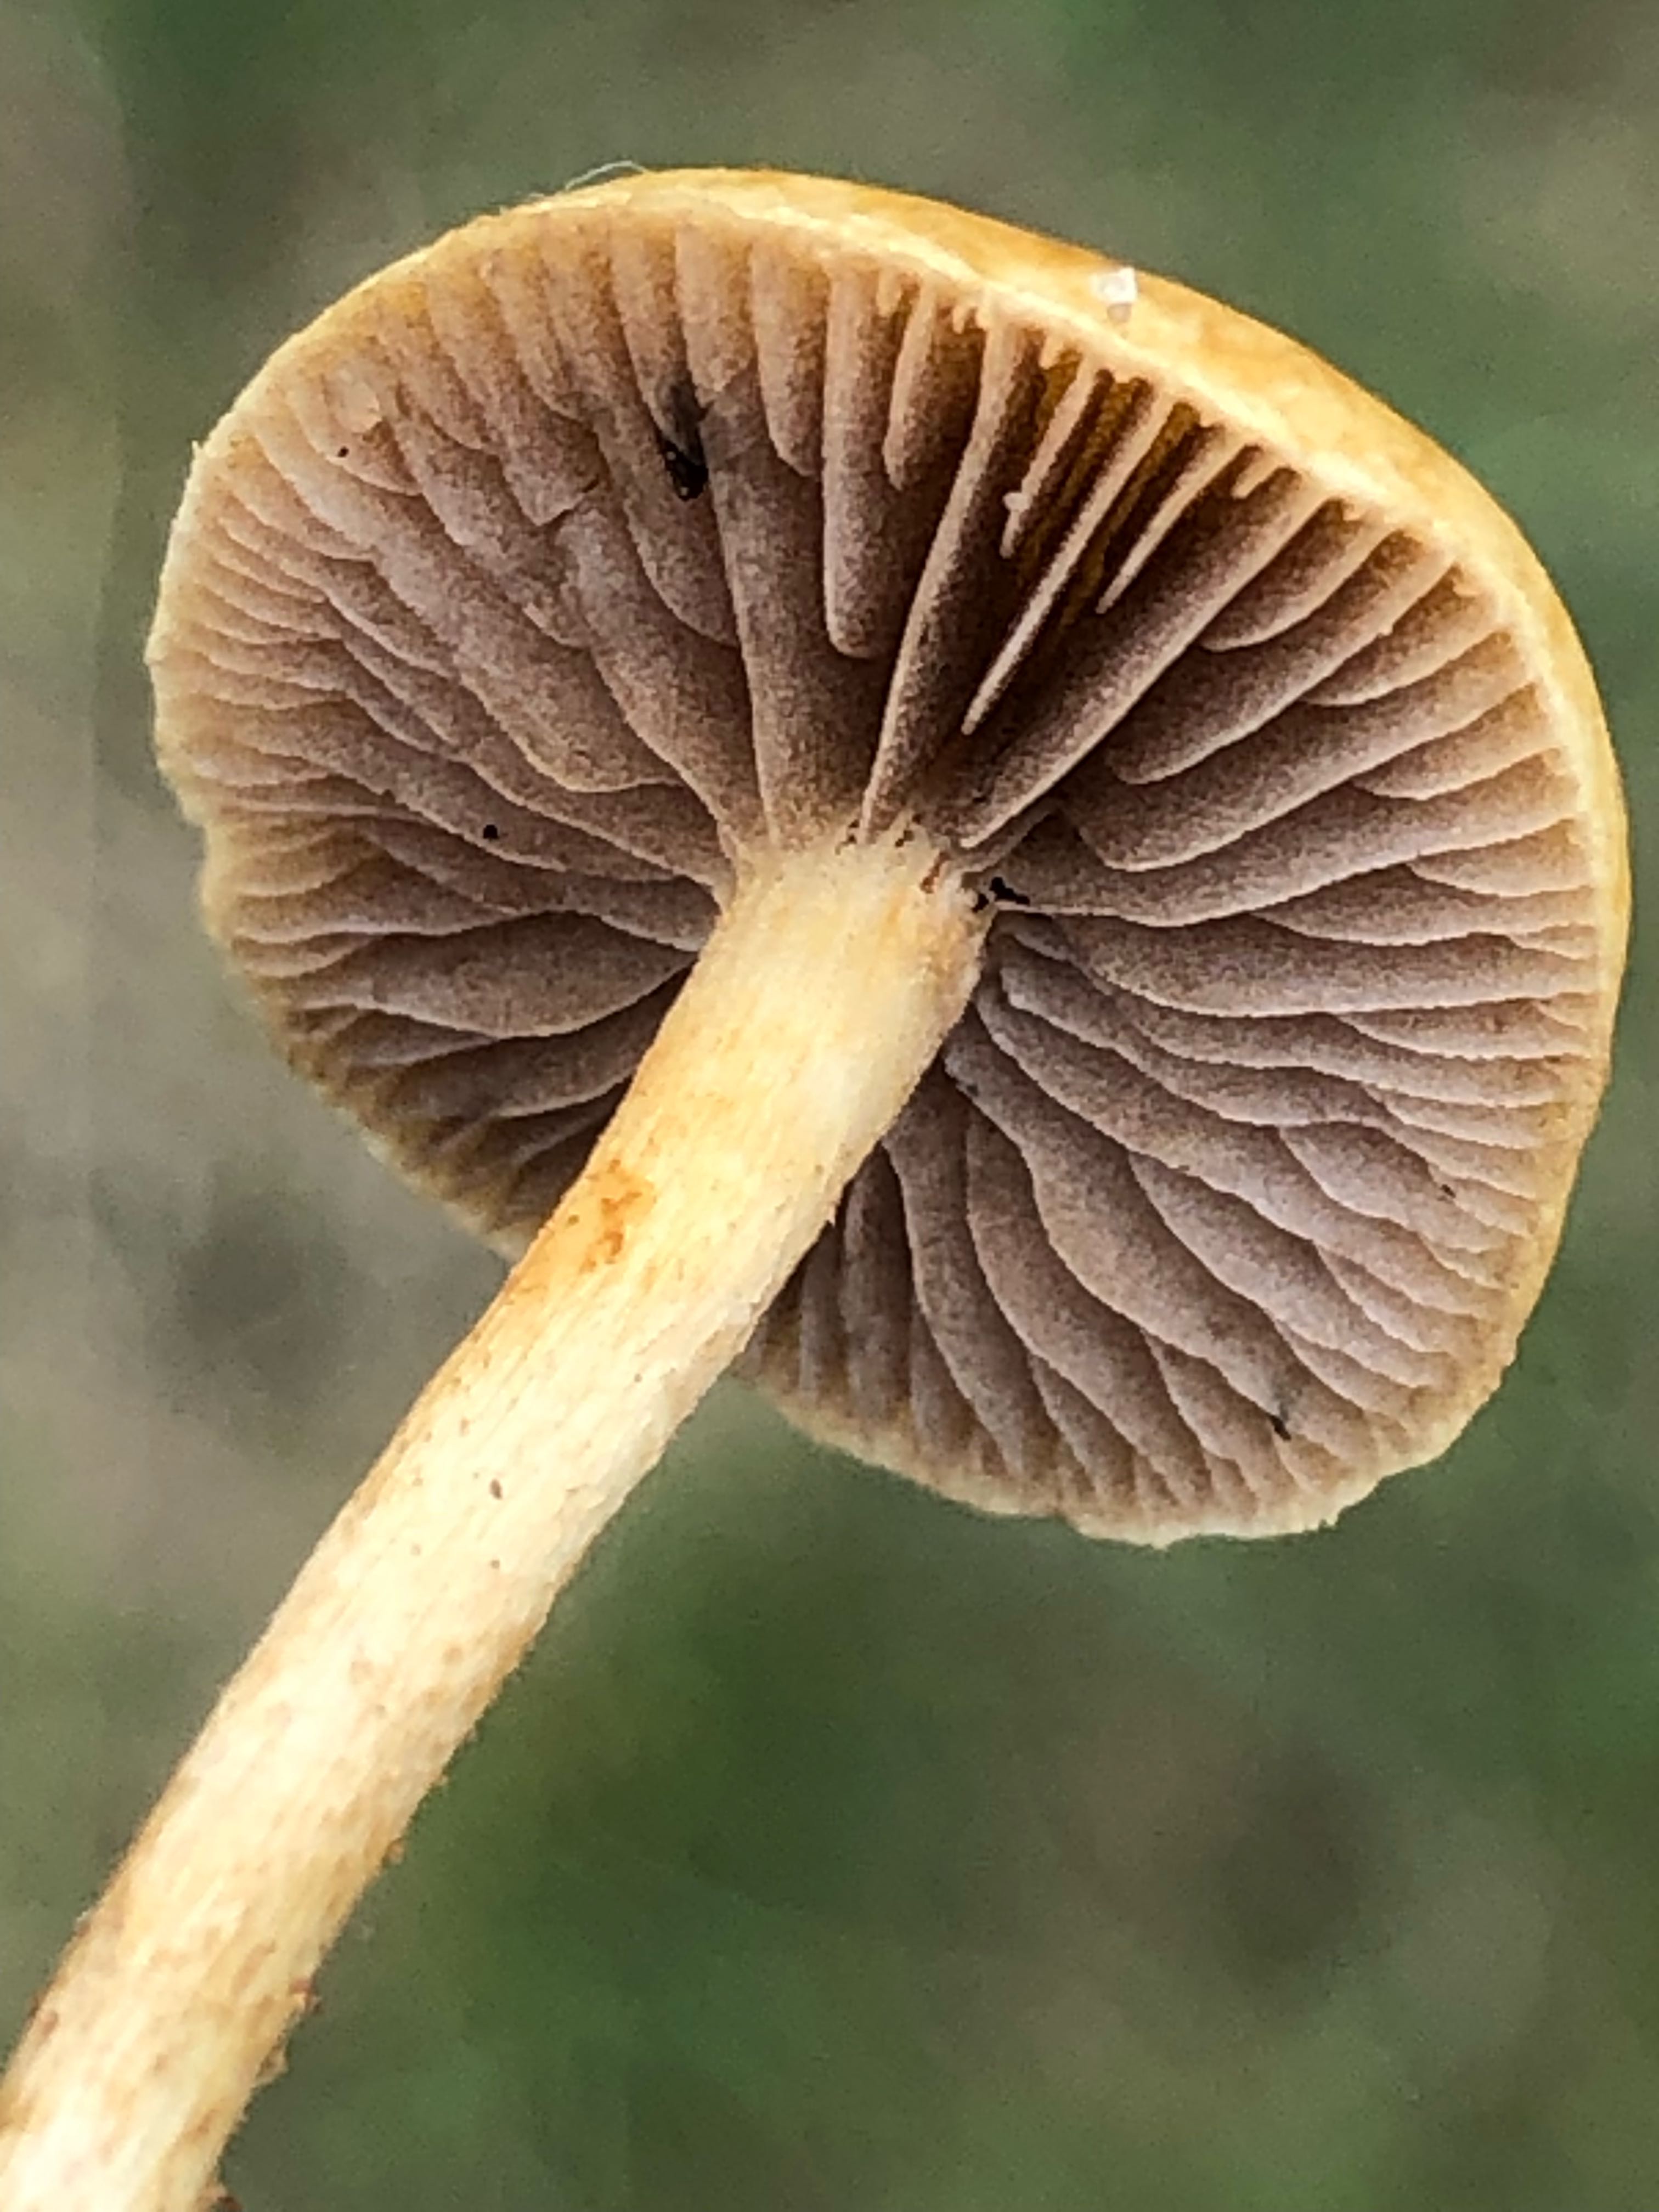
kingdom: Fungi
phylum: Basidiomycota
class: Agaricomycetes
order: Agaricales
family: Strophariaceae
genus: Agrocybe
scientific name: Agrocybe pediades
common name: almindelig agerhat
